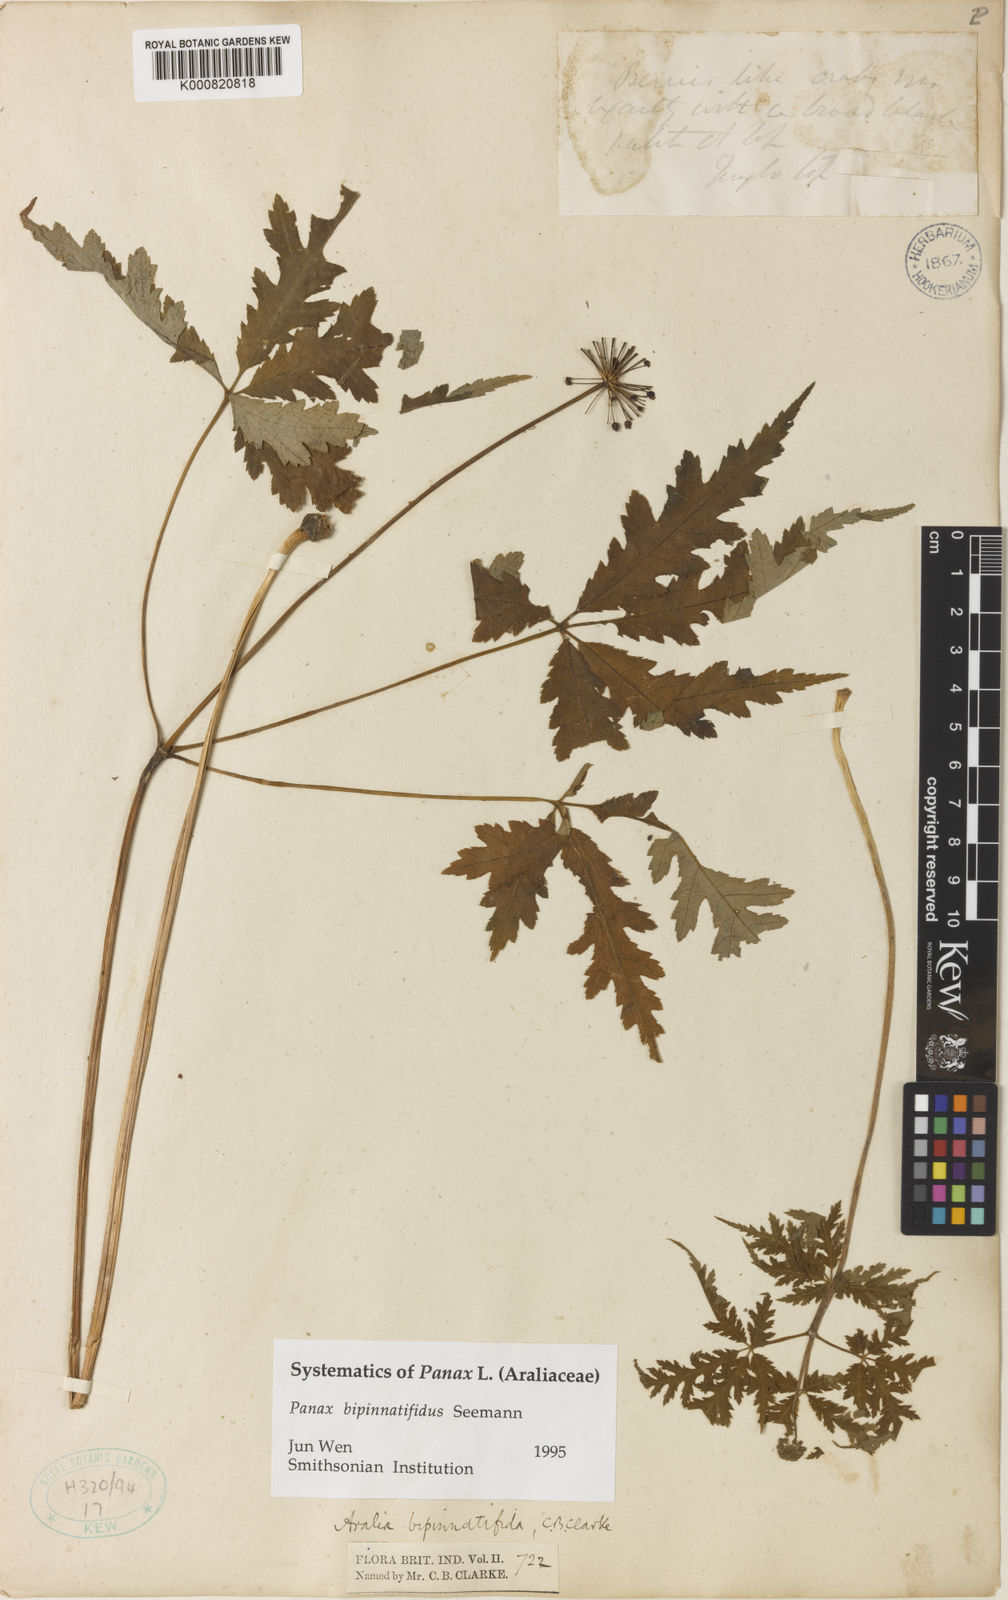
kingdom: Plantae
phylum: Tracheophyta
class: Magnoliopsida
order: Apiales
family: Araliaceae
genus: Panax
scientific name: Panax bipinnatifidus
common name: Feather-leaf bamboo ginseng
